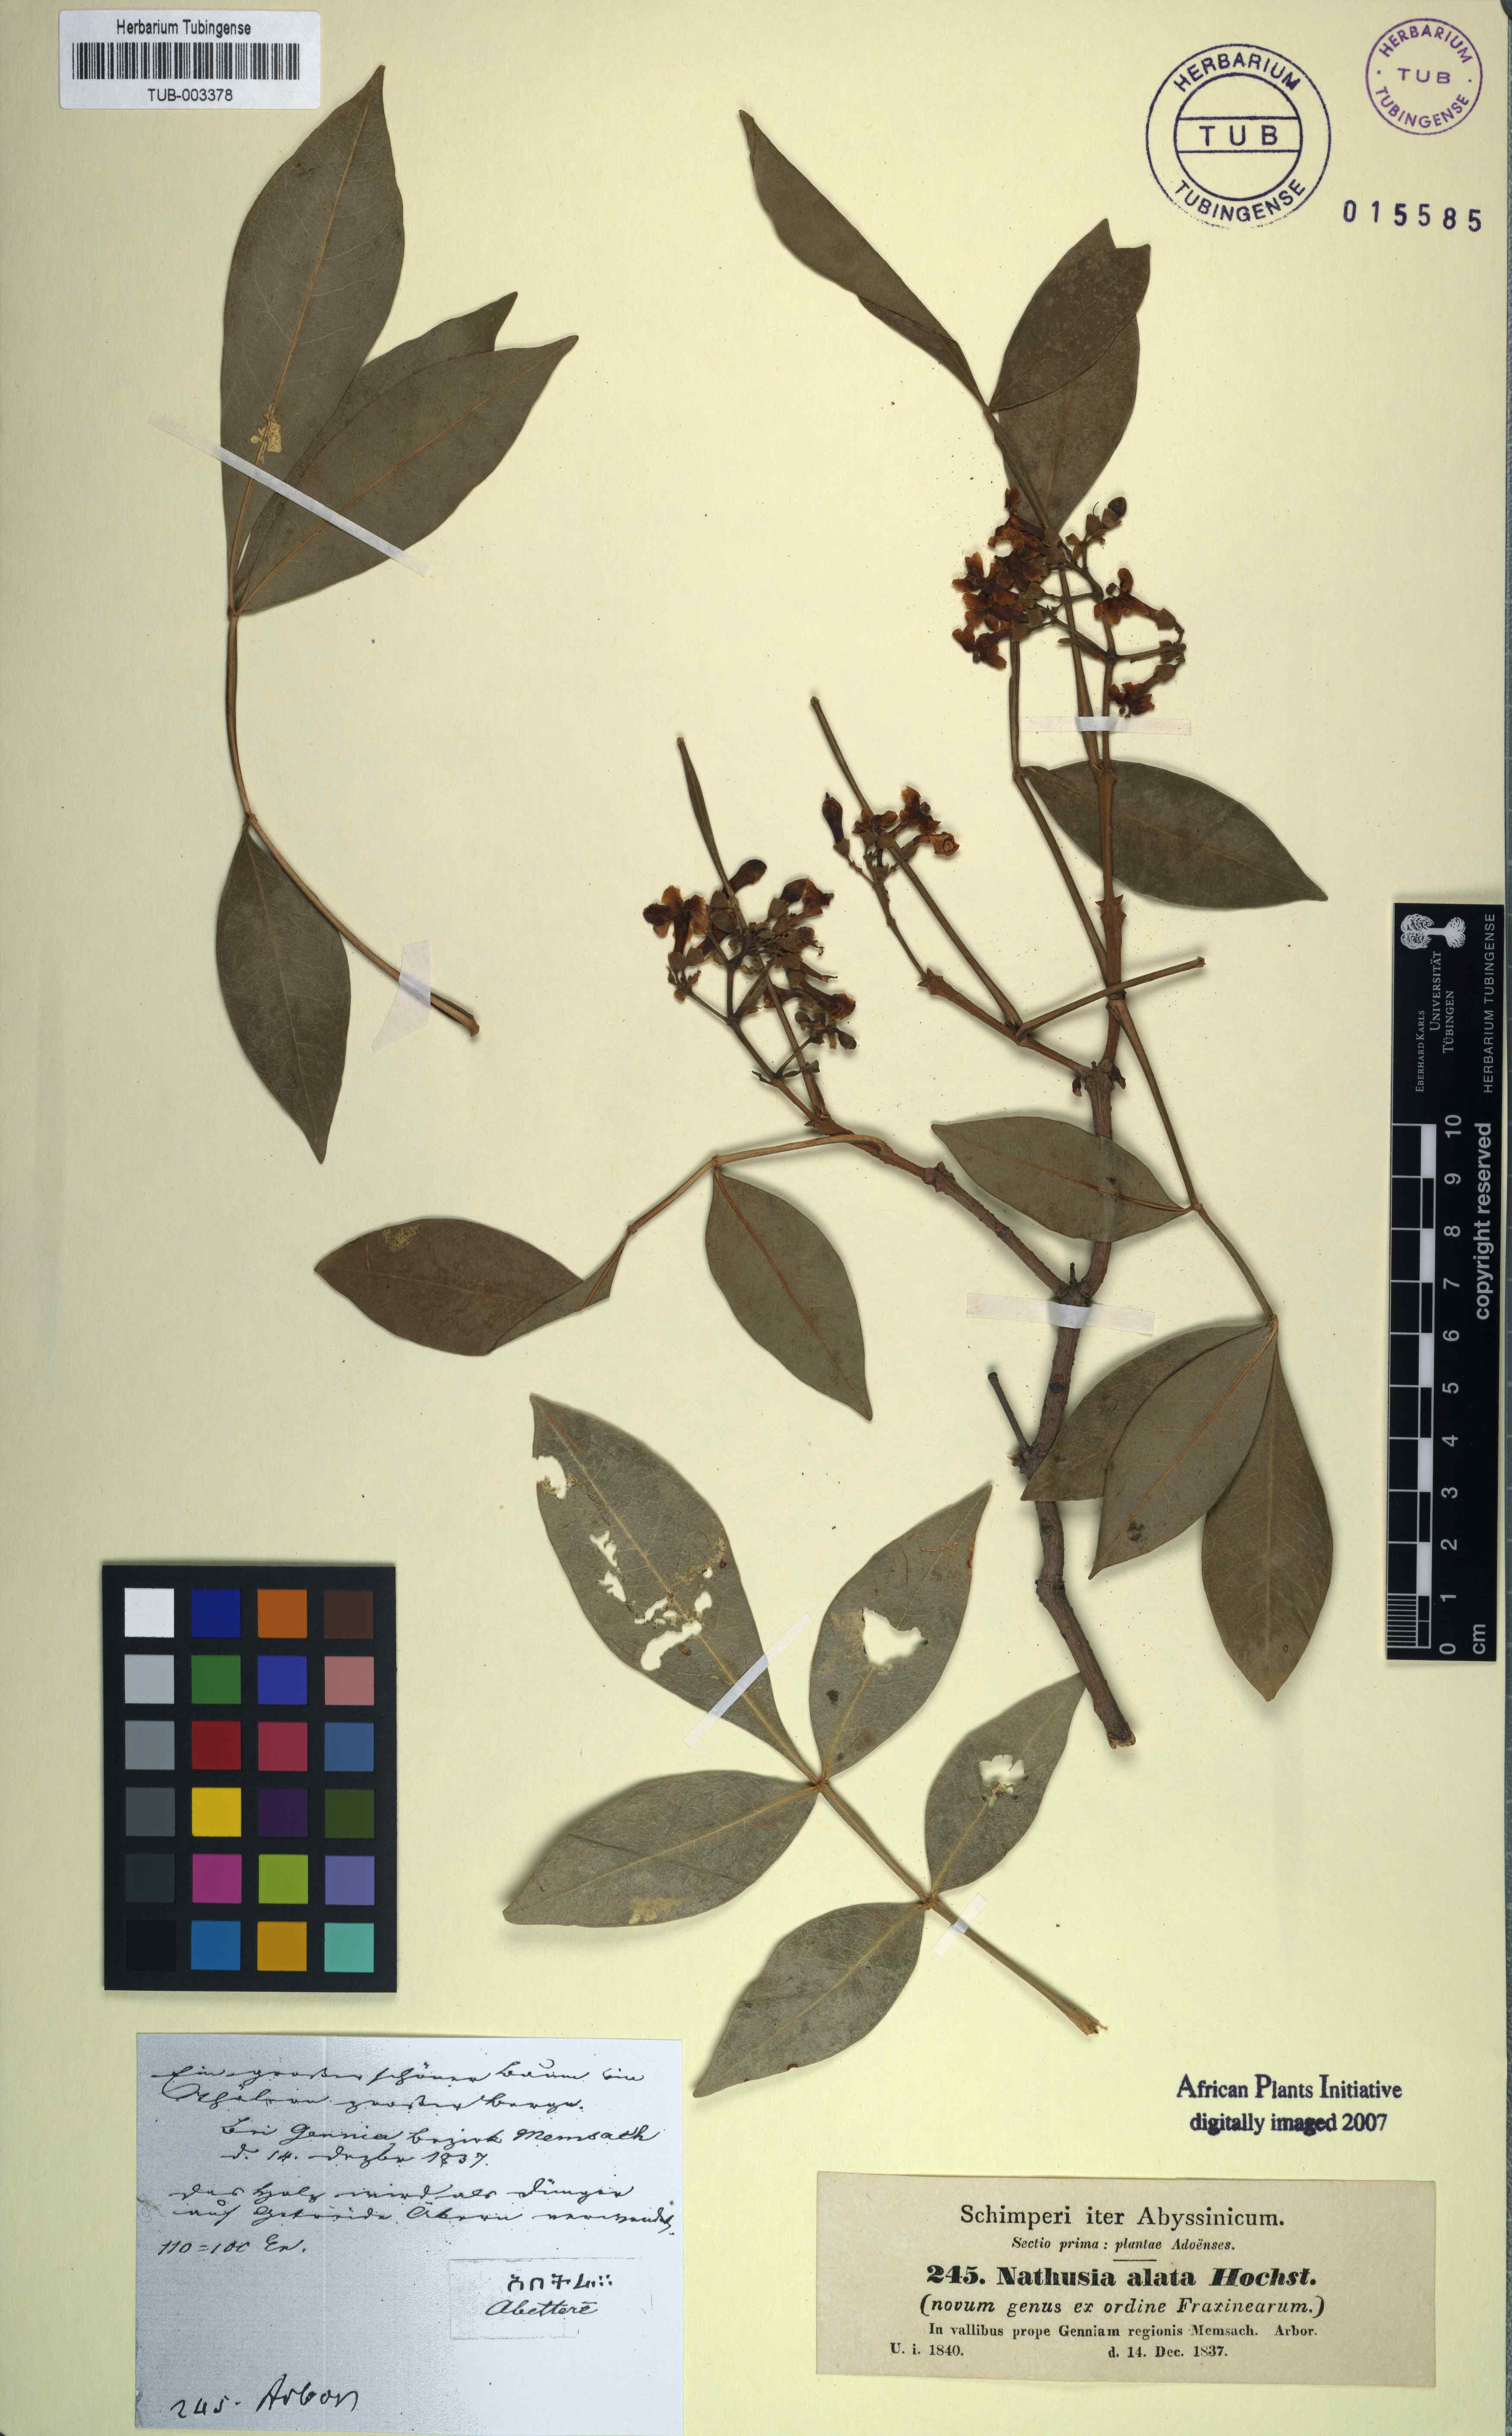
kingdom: Plantae
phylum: Tracheophyta
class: Magnoliopsida
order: Lamiales
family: Oleaceae
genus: Schrebera
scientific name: Schrebera alata
